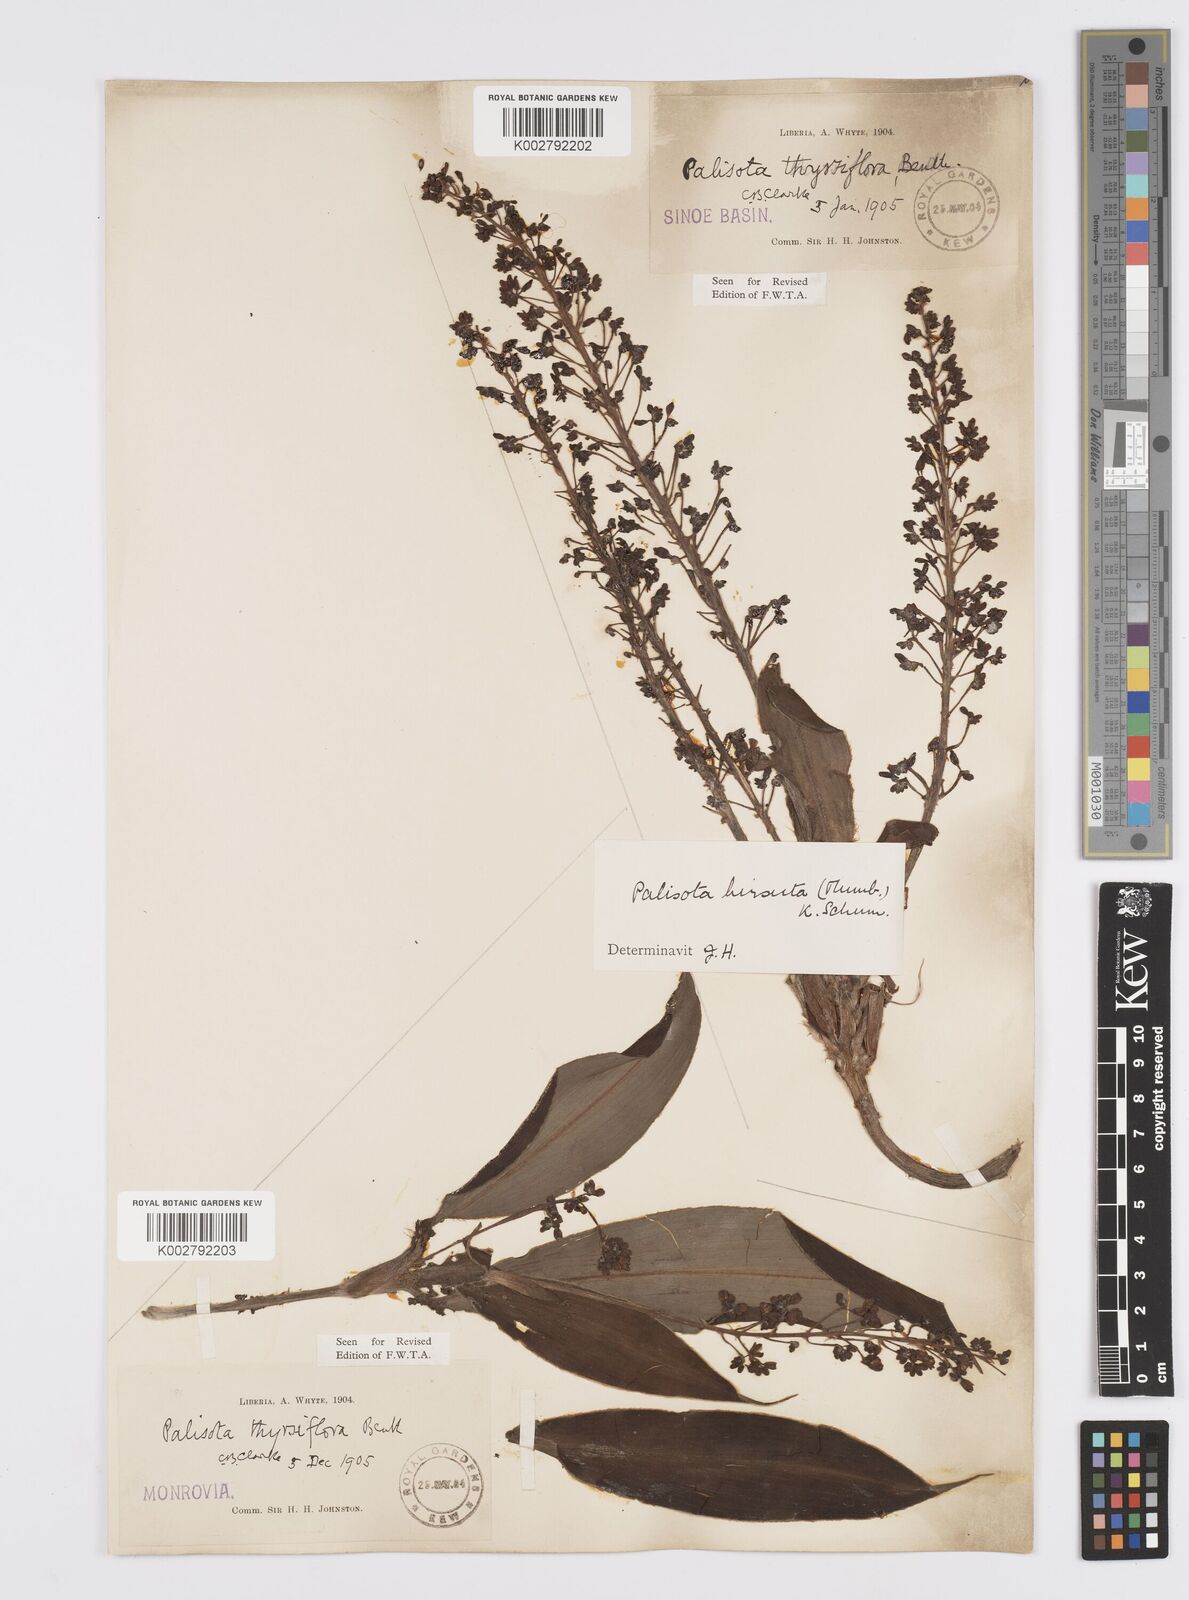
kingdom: Plantae
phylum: Tracheophyta
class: Liliopsida
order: Commelinales
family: Commelinaceae
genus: Palisota
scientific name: Palisota hirsuta
